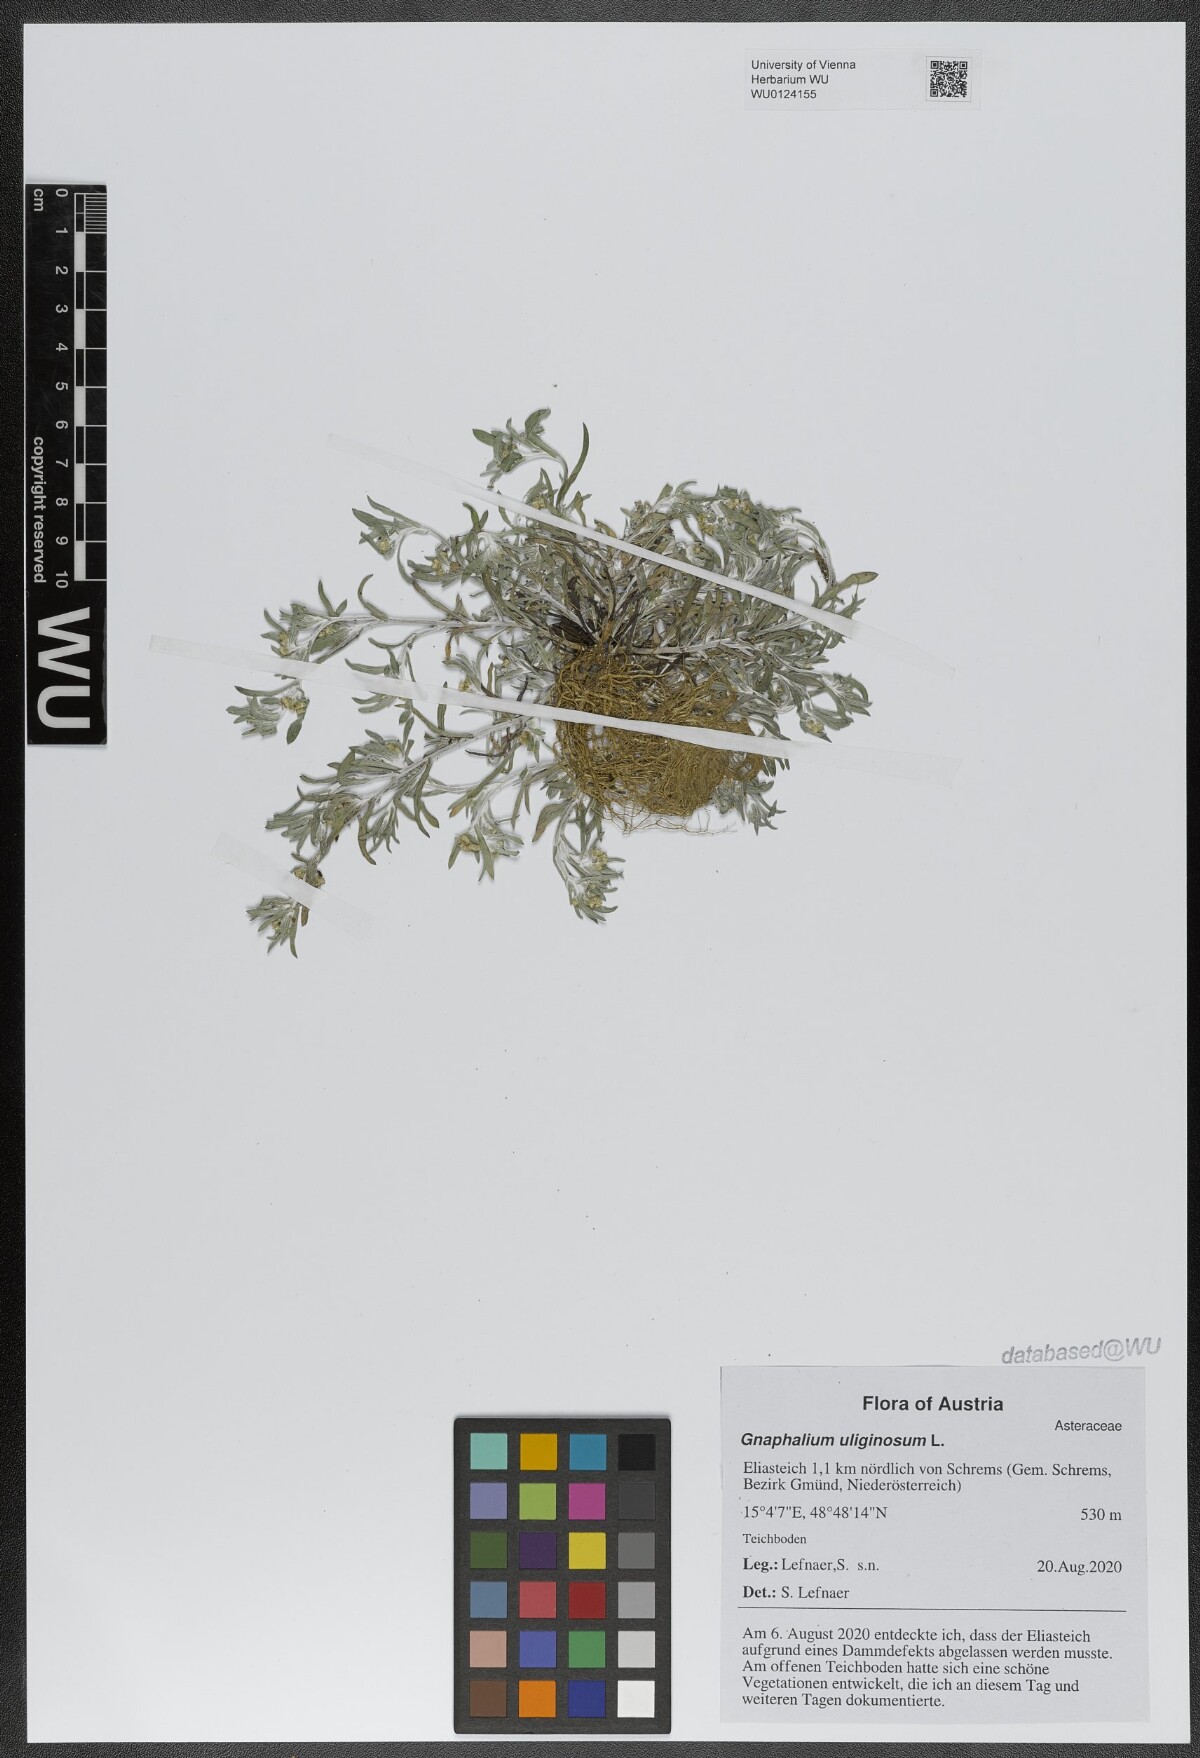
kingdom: Plantae
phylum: Tracheophyta
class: Magnoliopsida
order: Asterales
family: Asteraceae
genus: Gnaphalium
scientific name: Gnaphalium uliginosum
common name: Marsh cudweed
